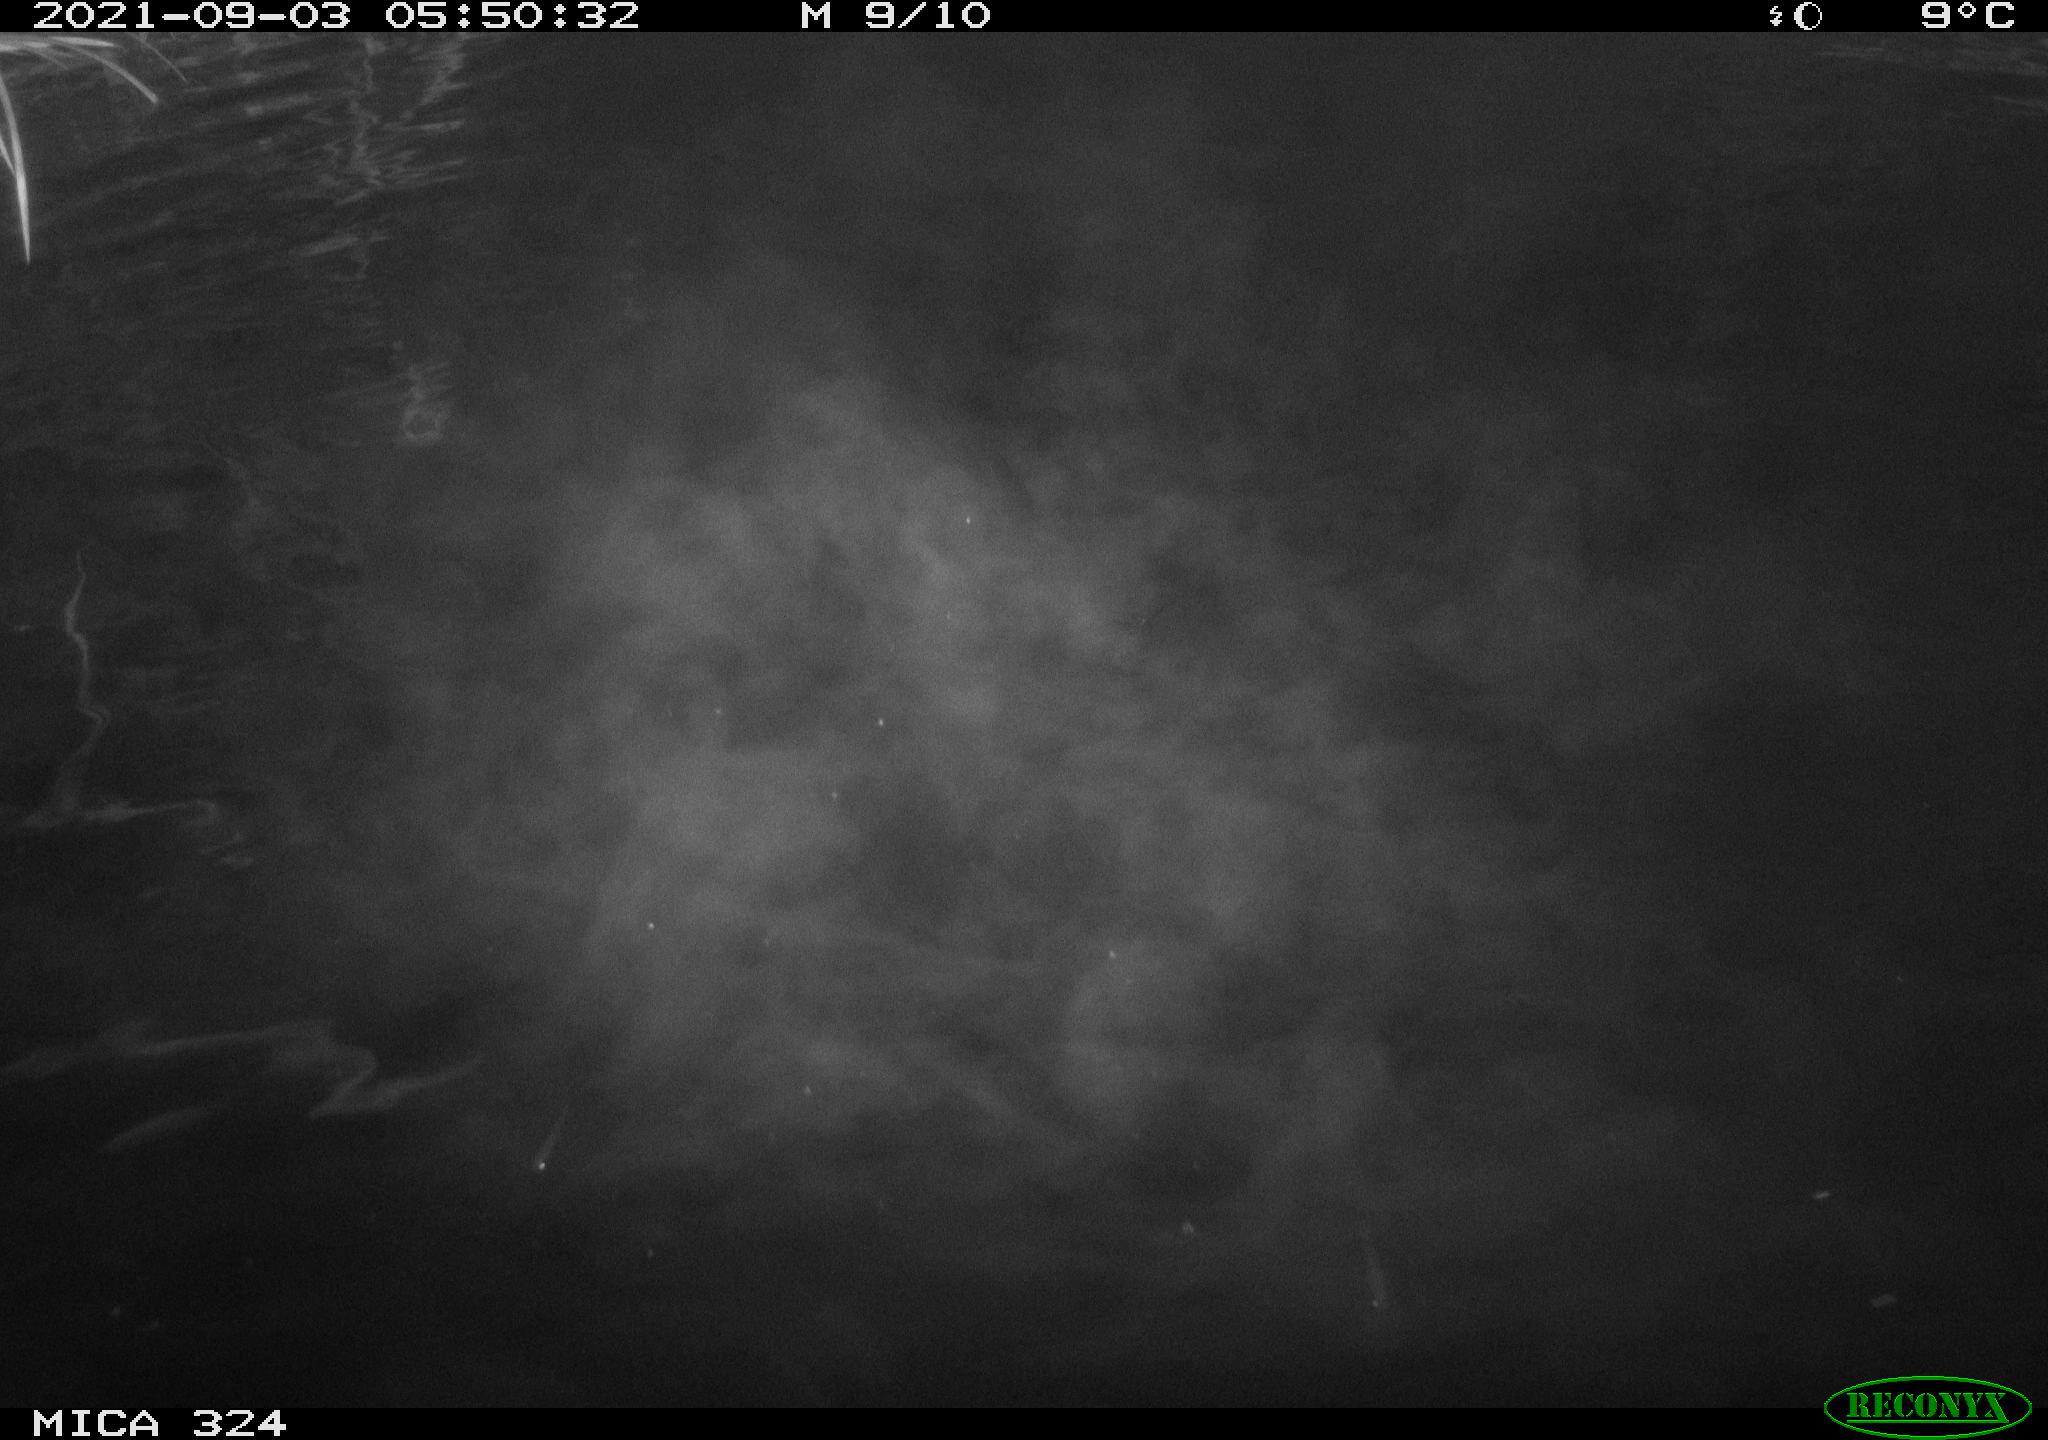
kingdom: Animalia
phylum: Chordata
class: Mammalia
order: Rodentia
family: Cricetidae
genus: Ondatra
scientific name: Ondatra zibethicus
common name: Muskrat
